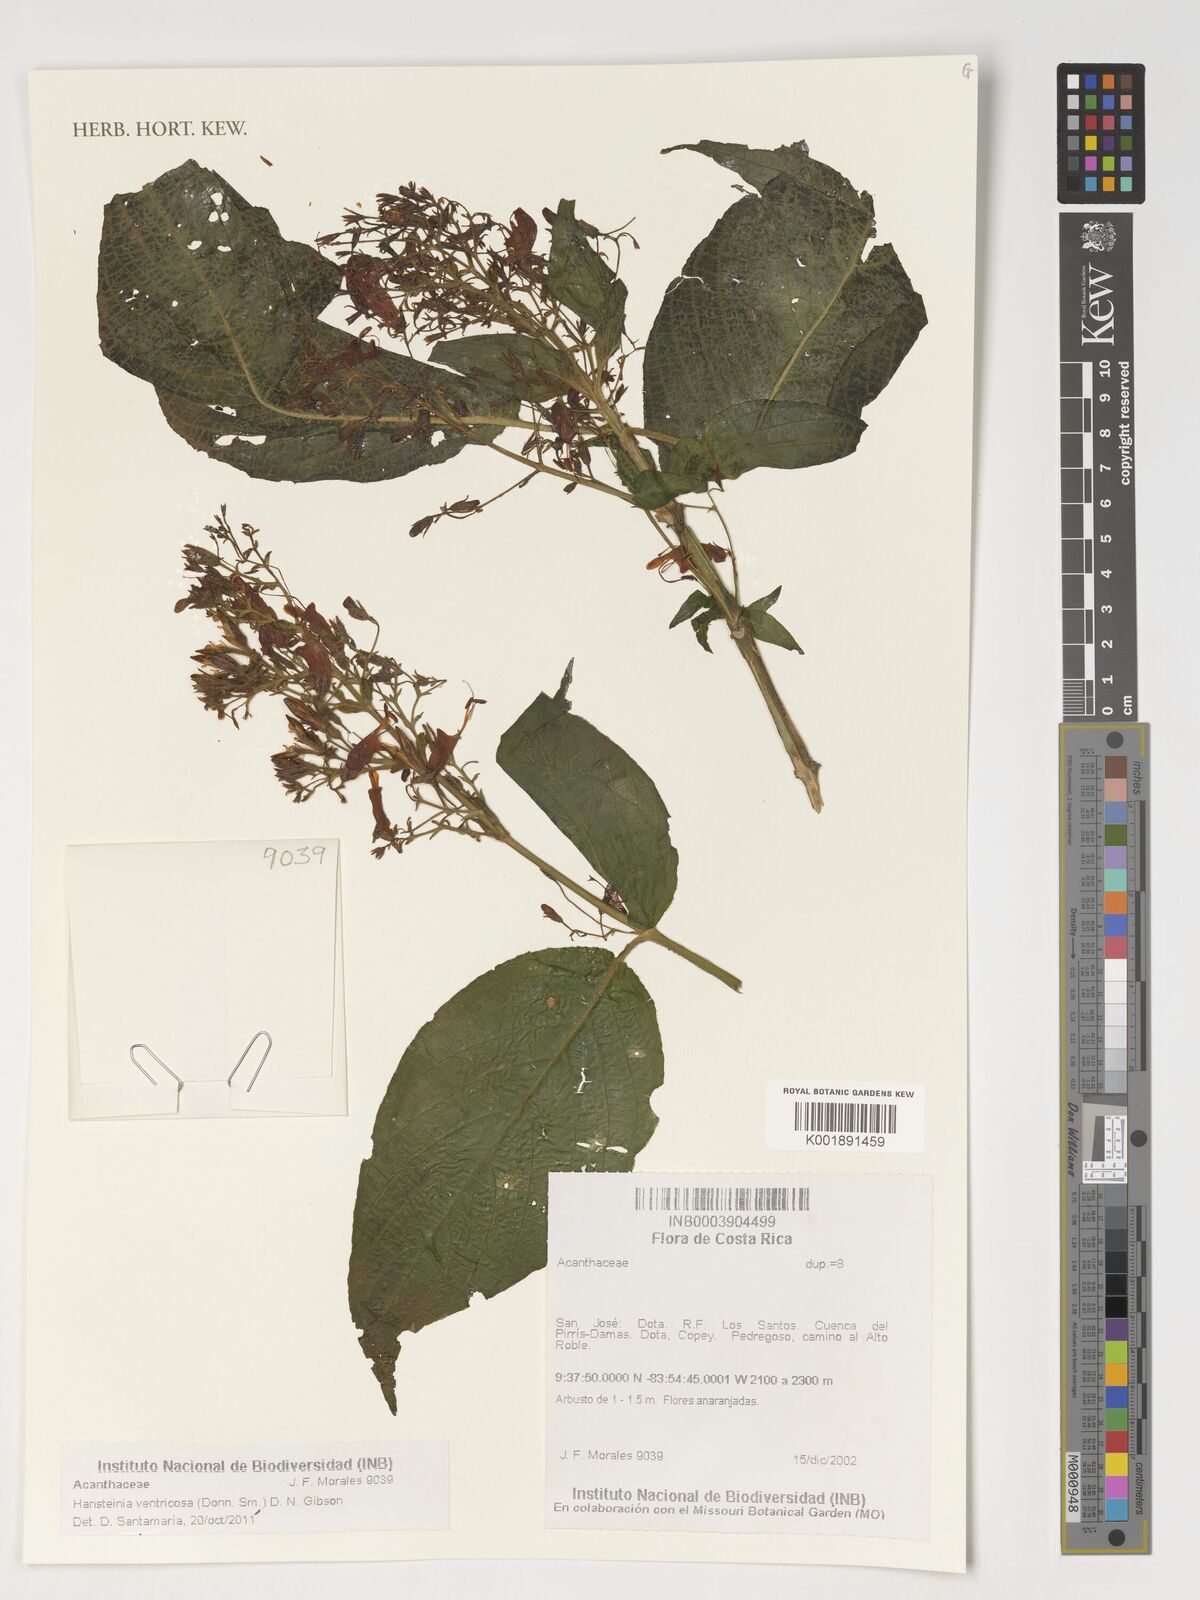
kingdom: Plantae
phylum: Tracheophyta
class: Magnoliopsida
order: Lamiales
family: Acanthaceae
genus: Stenostephanus
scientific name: Stenostephanus ventricosus
